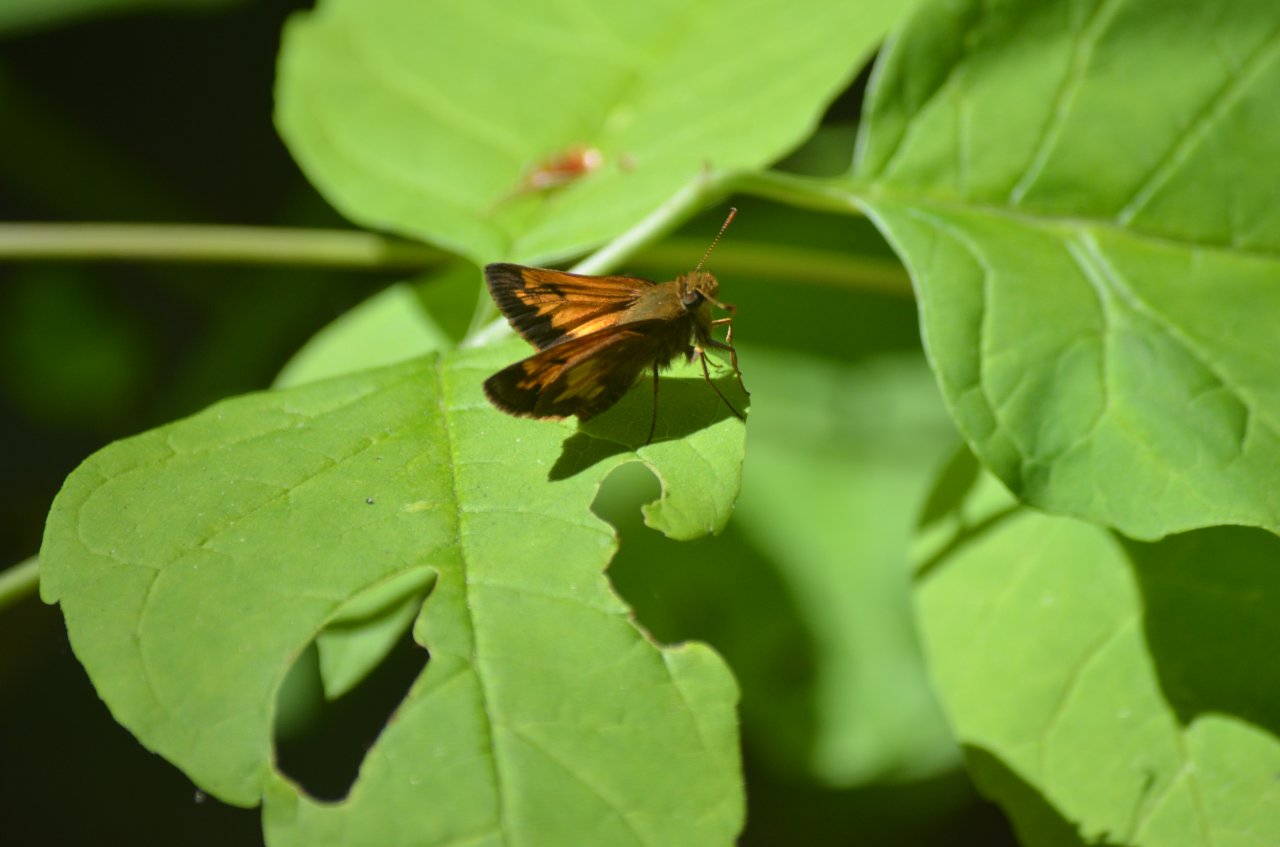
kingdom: Animalia
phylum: Arthropoda
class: Insecta
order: Lepidoptera
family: Hesperiidae
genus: Lon
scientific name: Lon hobomok
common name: Hobomok Skipper
